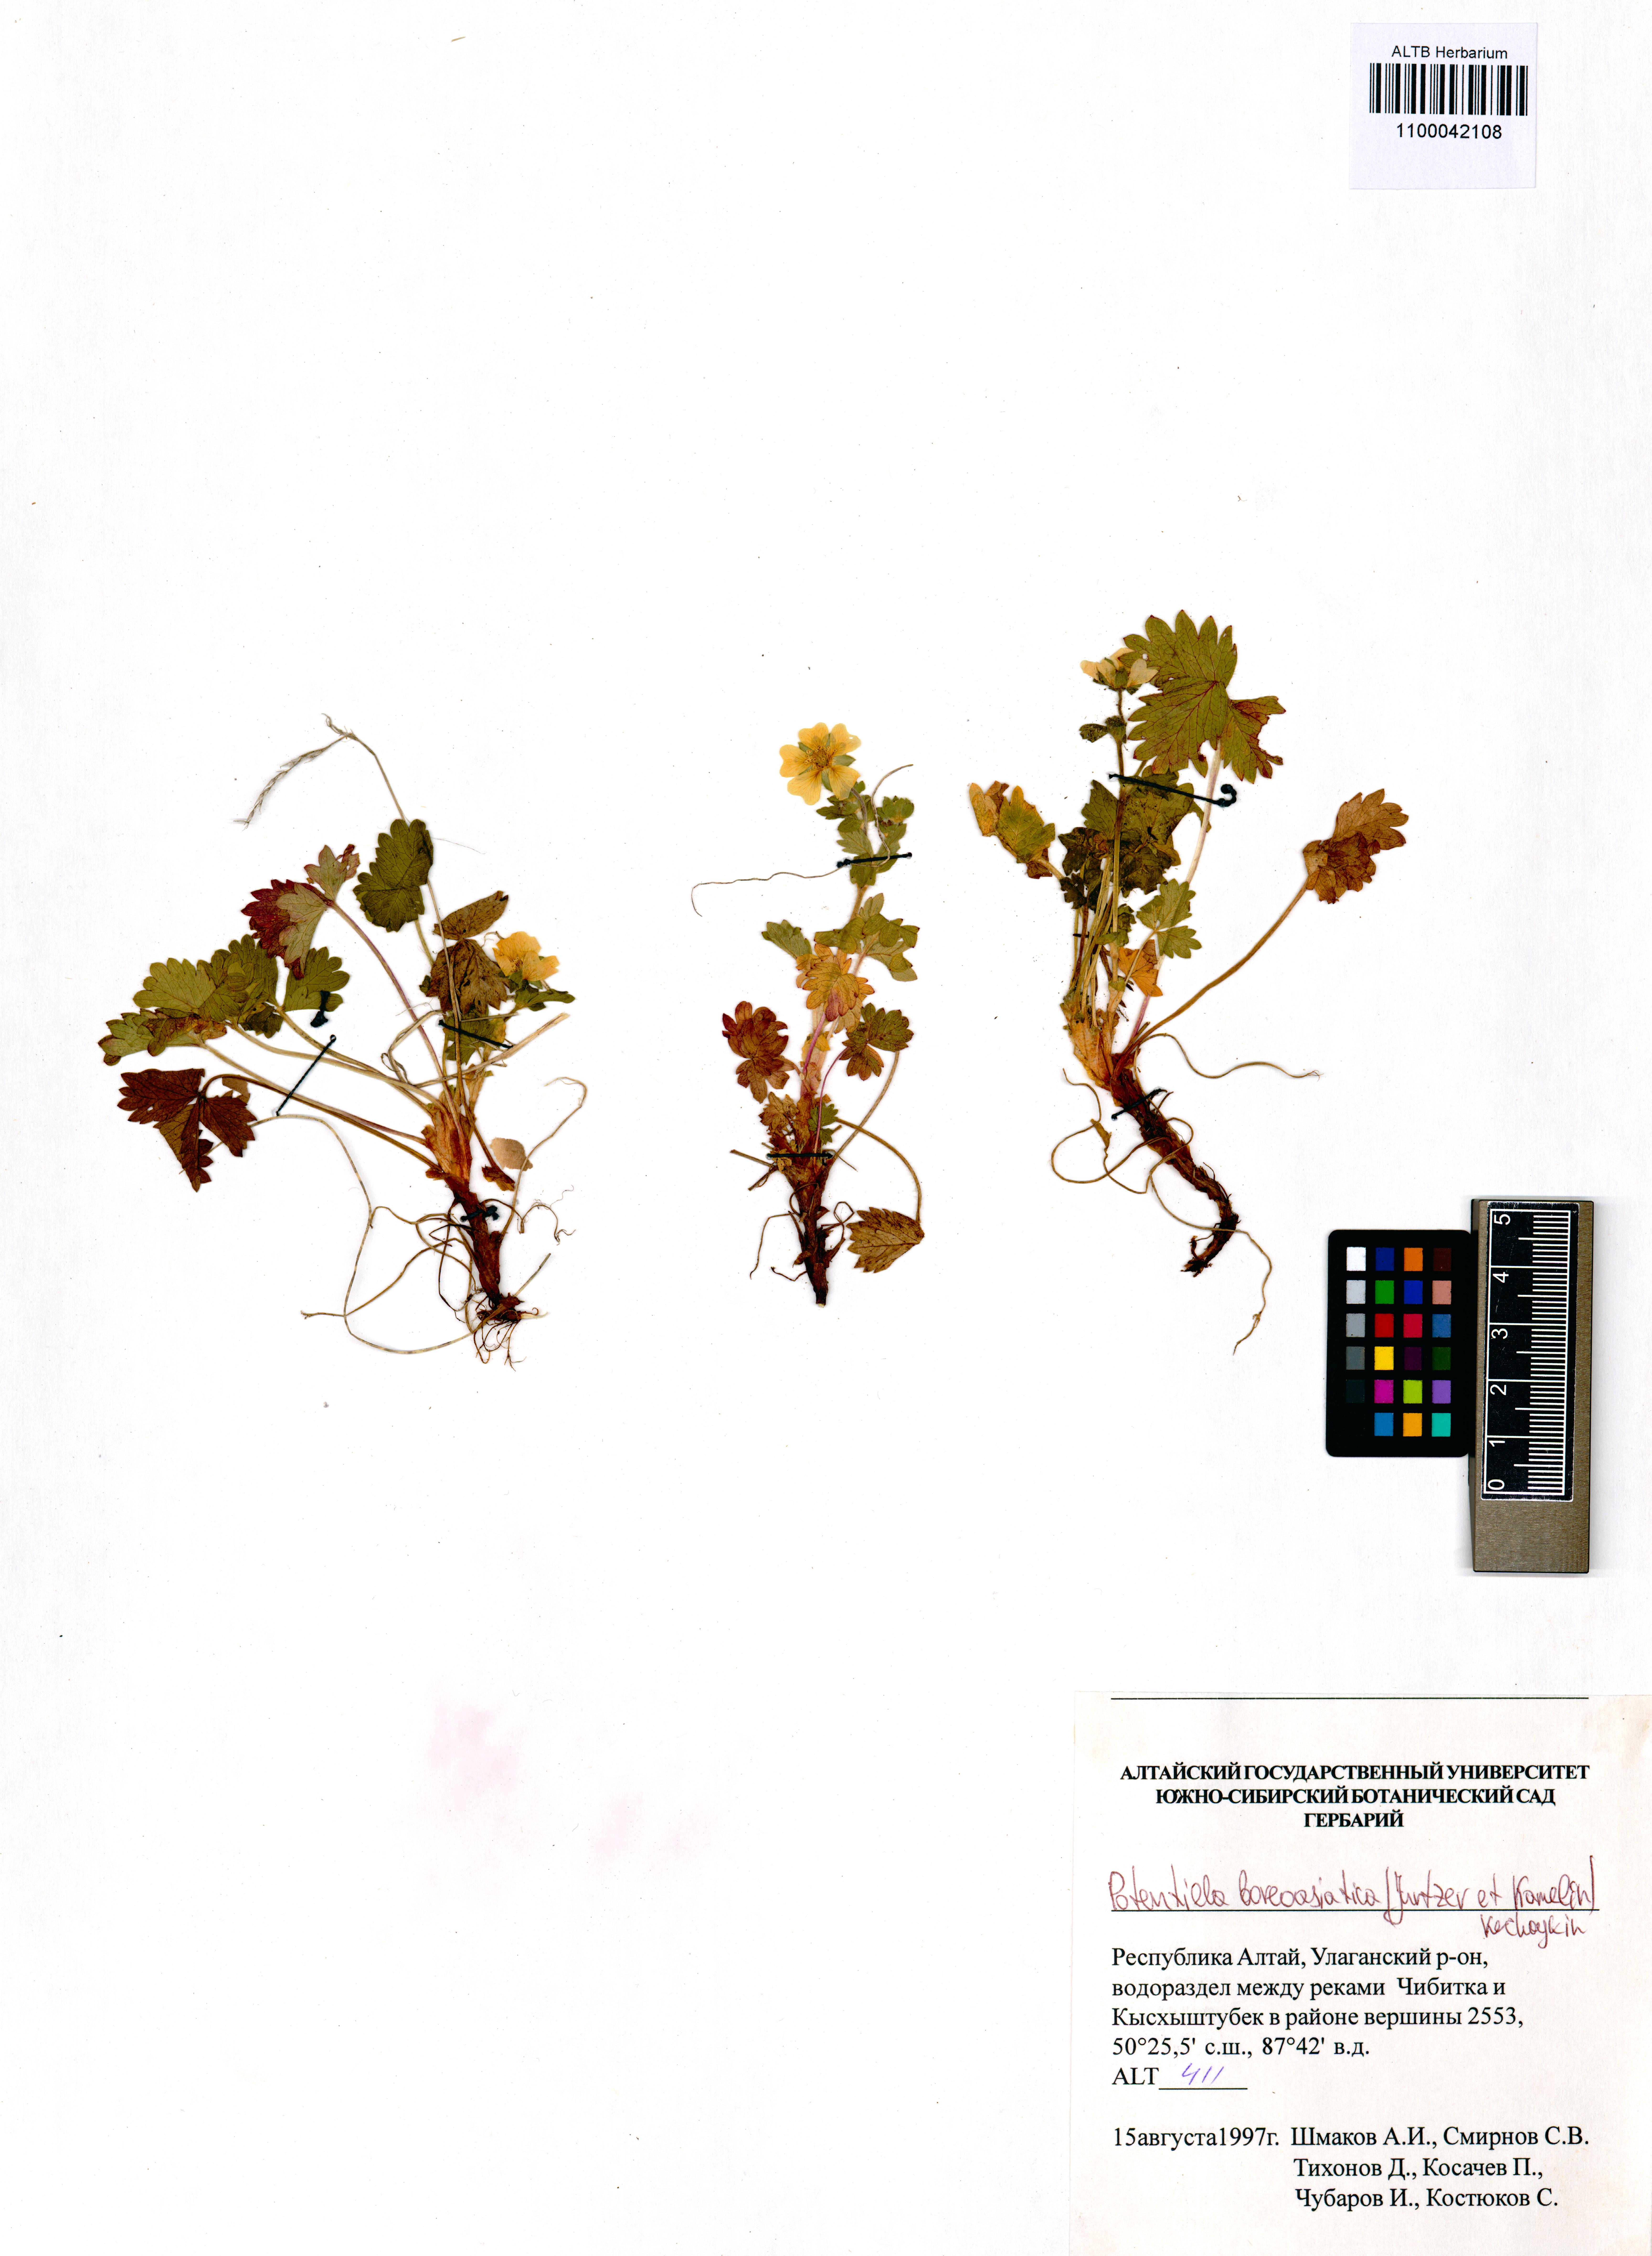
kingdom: Plantae
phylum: Tracheophyta
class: Magnoliopsida
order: Rosales
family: Rosaceae
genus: Potentilla
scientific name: Potentilla
